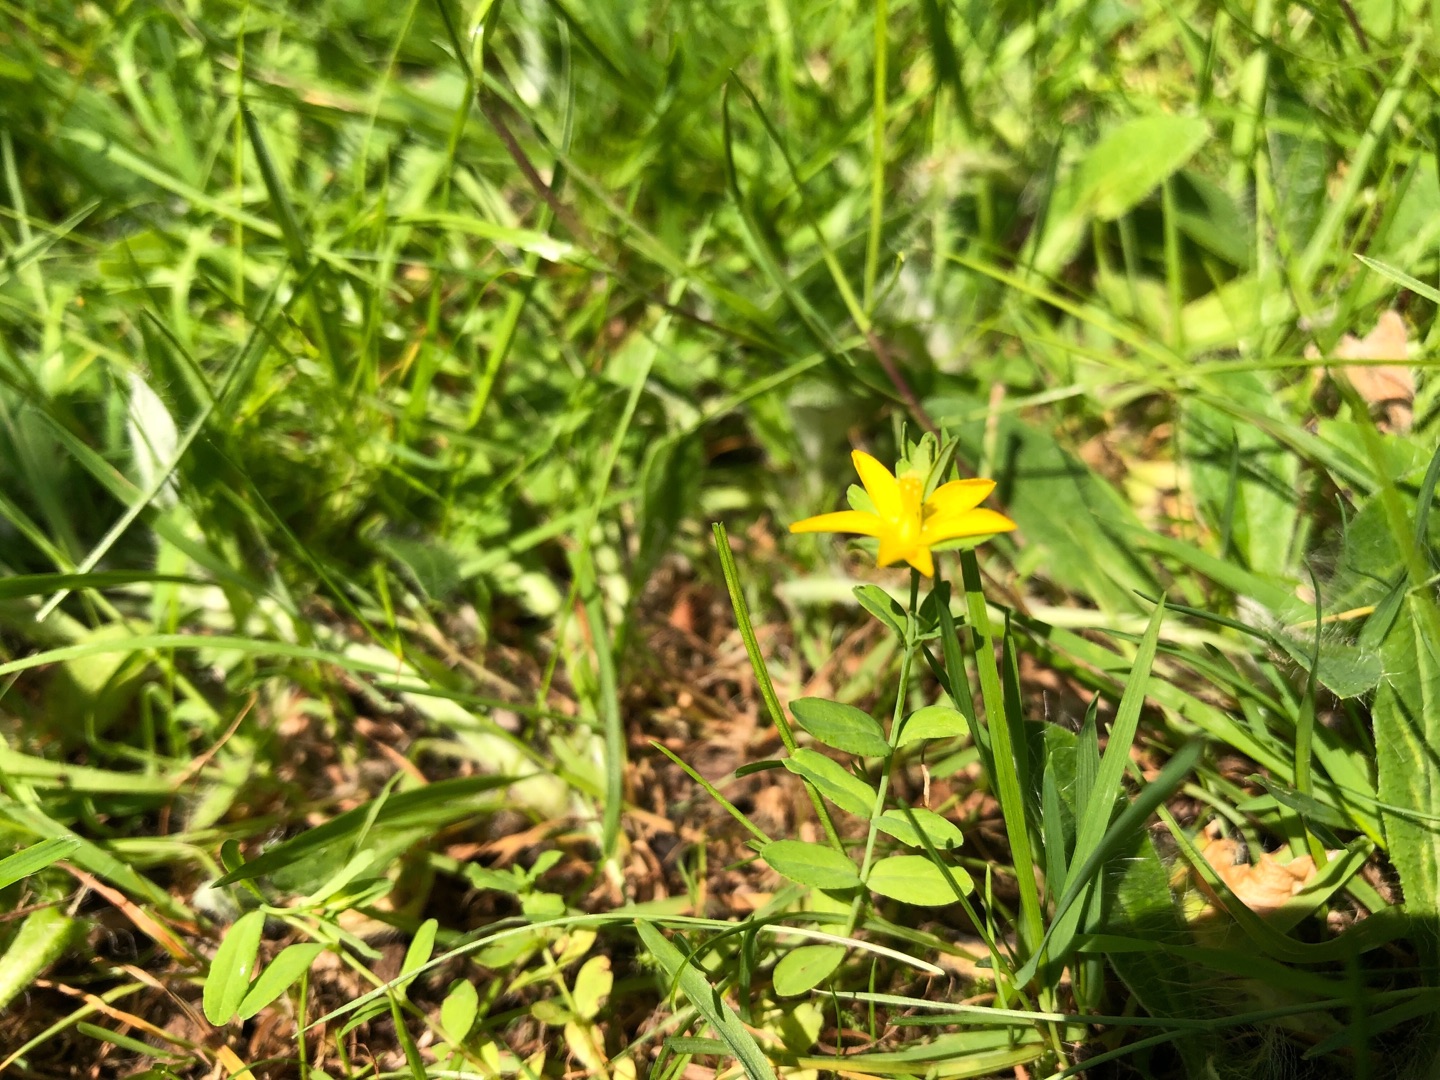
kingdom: Plantae
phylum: Tracheophyta
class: Magnoliopsida
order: Malpighiales
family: Hypericaceae
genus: Hypericum
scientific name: Hypericum humifusum
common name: Dværg-perikon
